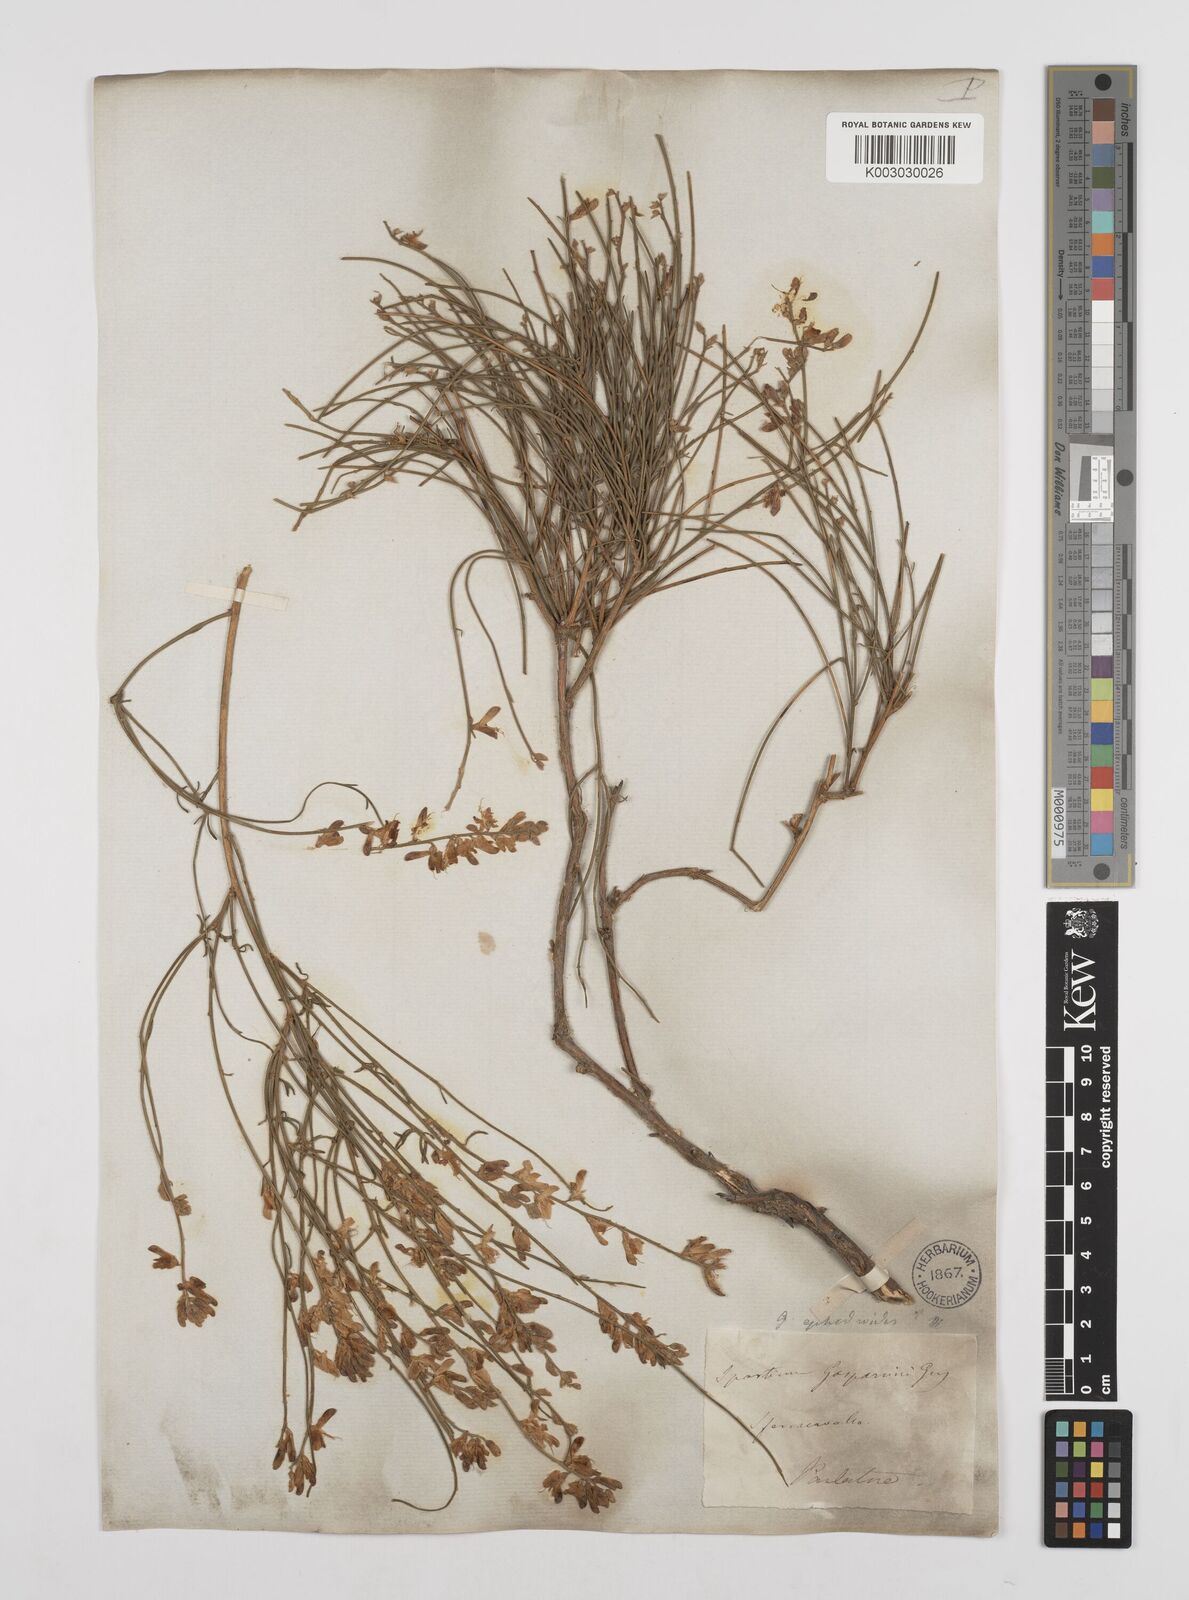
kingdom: Plantae
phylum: Tracheophyta
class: Magnoliopsida
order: Fabales
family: Fabaceae
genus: Genista
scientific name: Genista ephedroides
